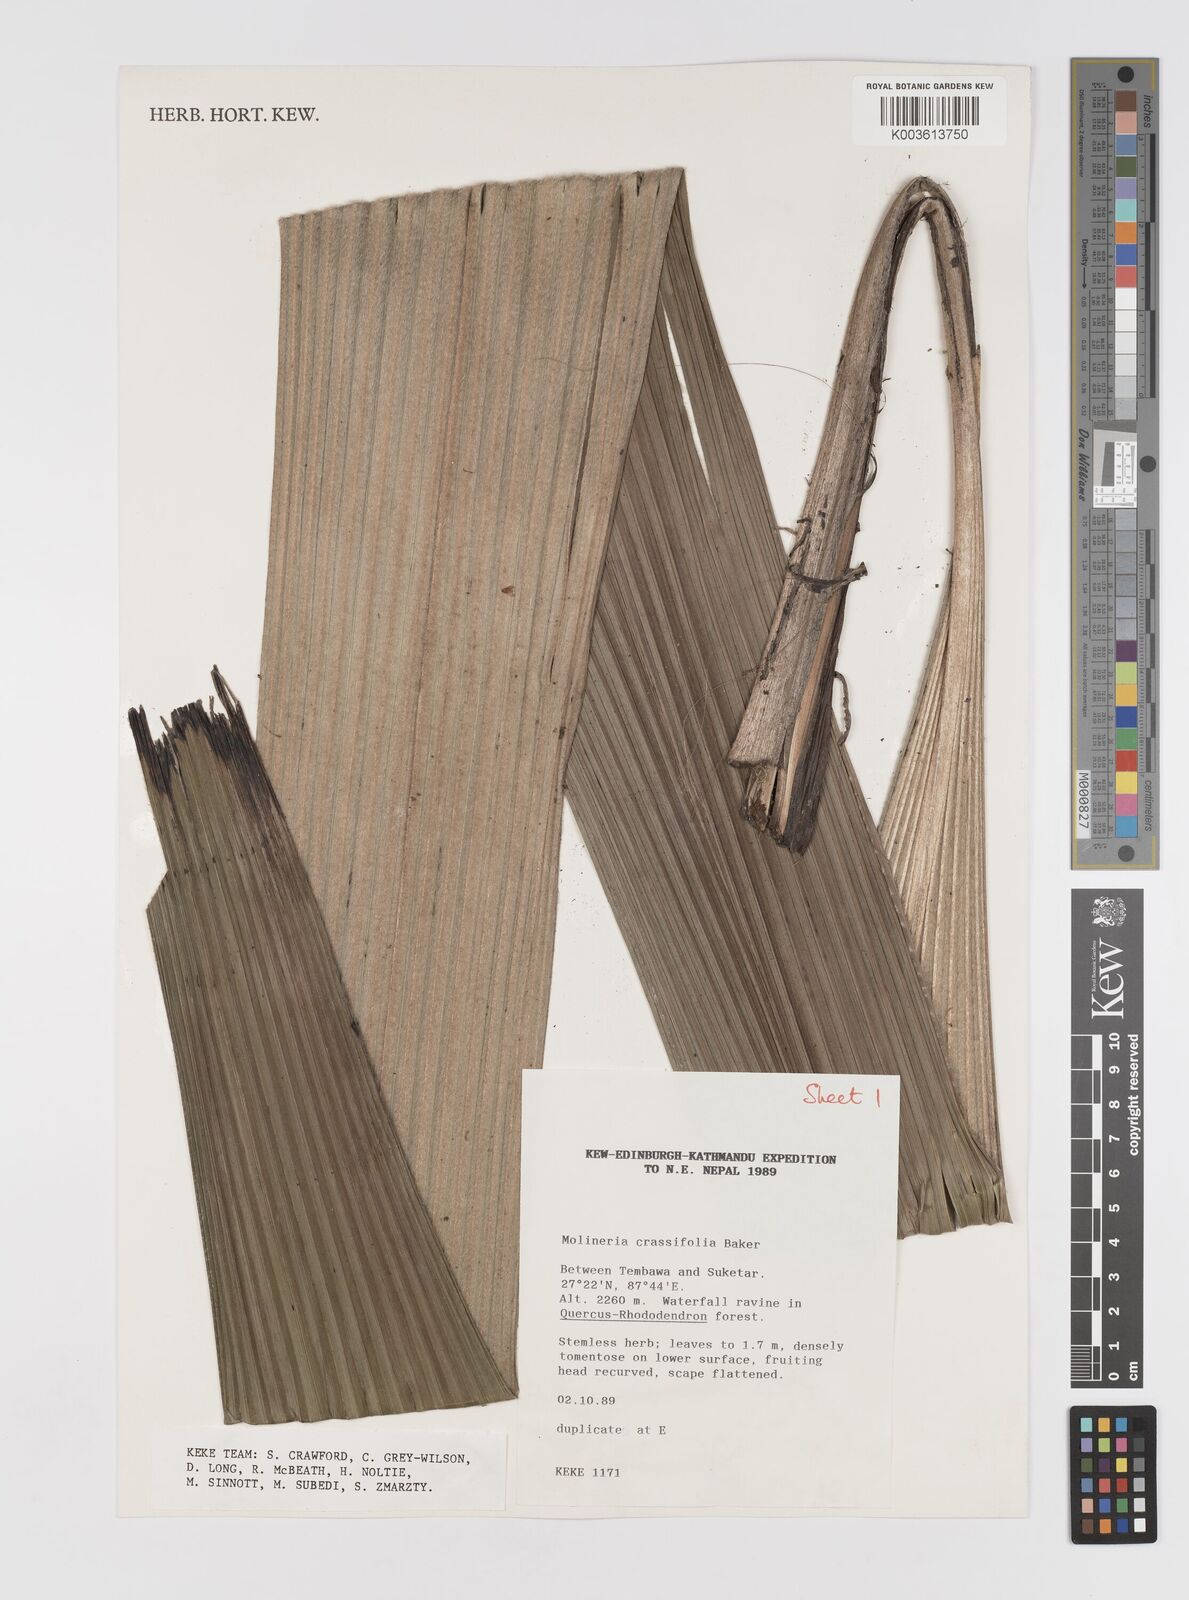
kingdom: Plantae
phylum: Tracheophyta
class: Liliopsida
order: Asparagales
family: Hypoxidaceae
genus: Curculigo
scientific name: Curculigo crassifolia
